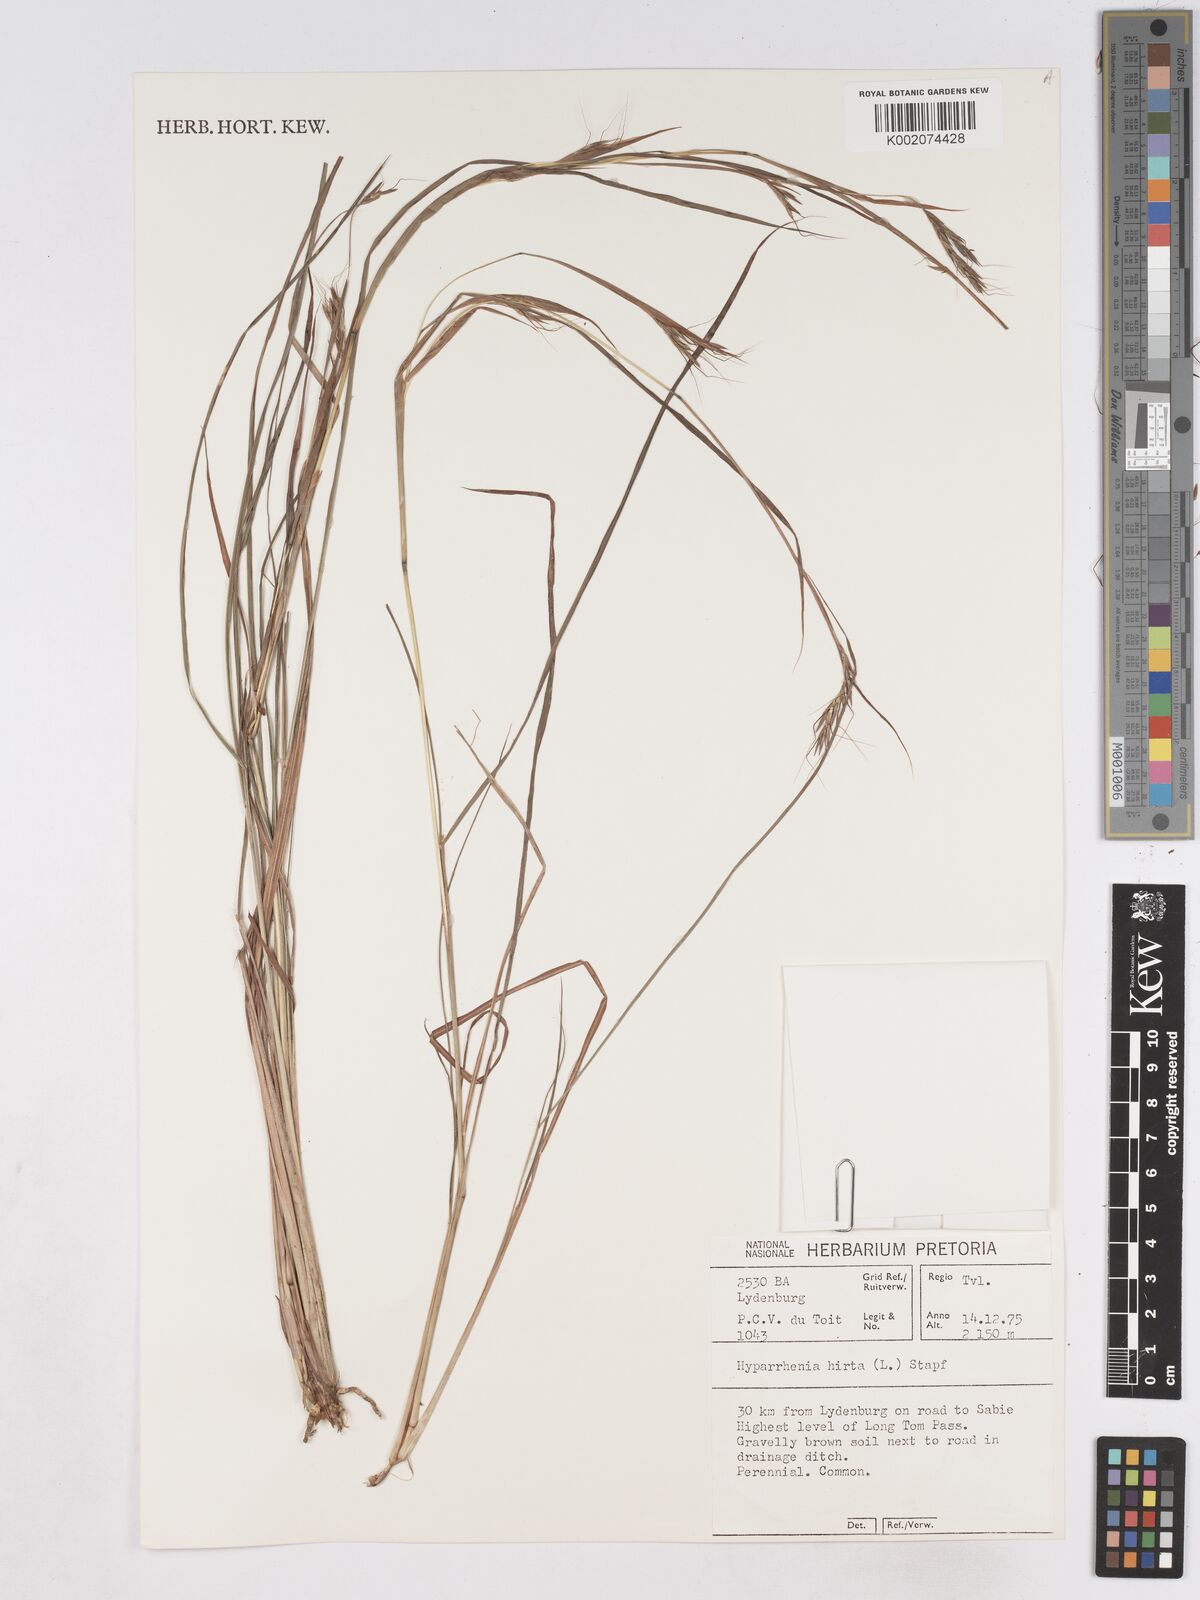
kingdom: Plantae
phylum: Tracheophyta
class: Liliopsida
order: Poales
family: Poaceae
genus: Hyparrhenia
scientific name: Hyparrhenia hirta
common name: Thatching grass
